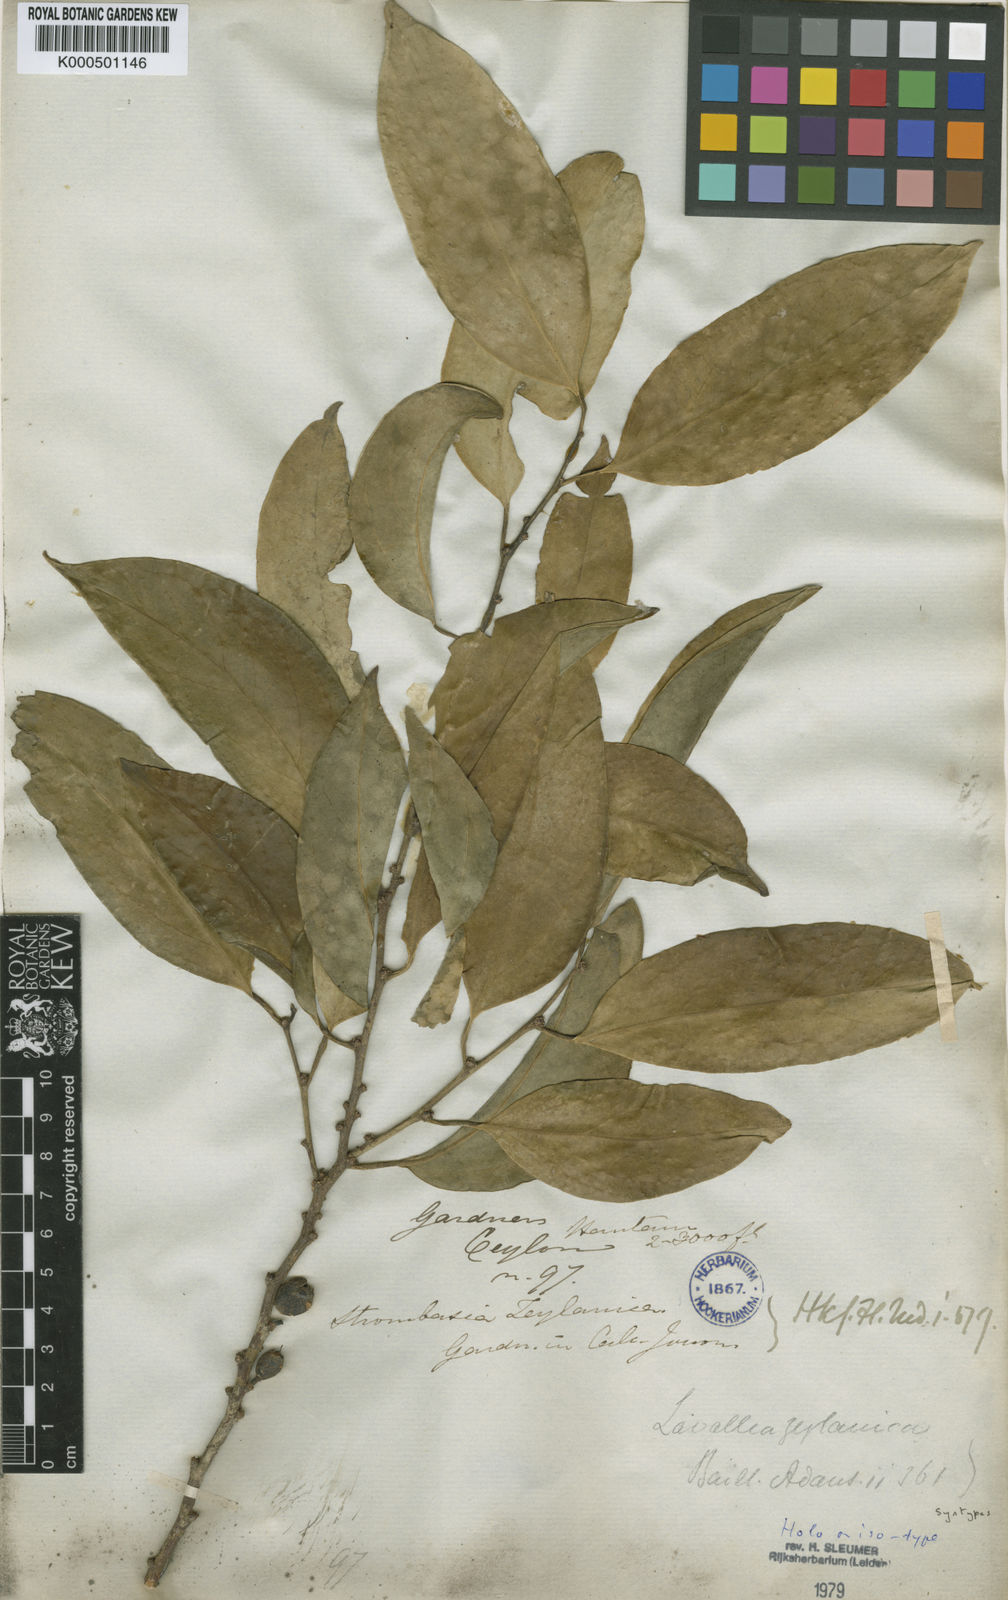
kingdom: Plantae
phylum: Tracheophyta
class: Magnoliopsida
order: Santalales
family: Strombosiaceae
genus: Strombosia
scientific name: Strombosia ceylanica
